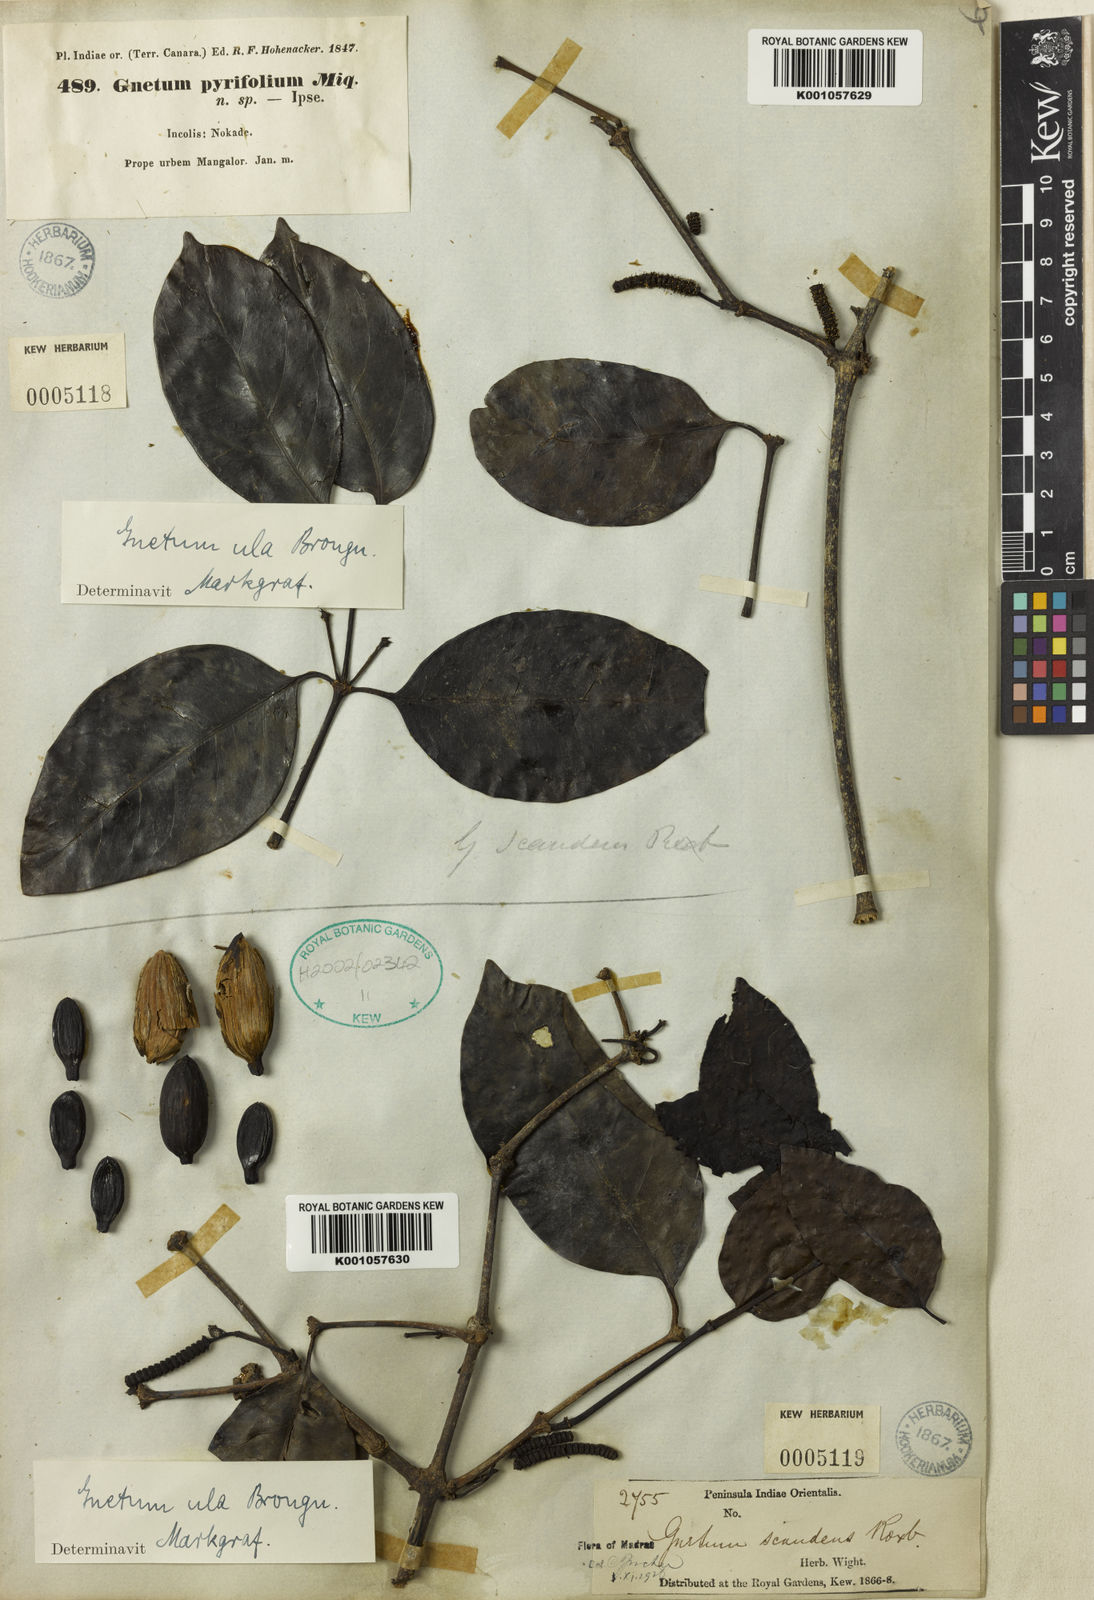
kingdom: Plantae
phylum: Tracheophyta
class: Gnetopsida
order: Gnetales
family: Gnetaceae
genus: Gnetum
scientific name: Gnetum edule
